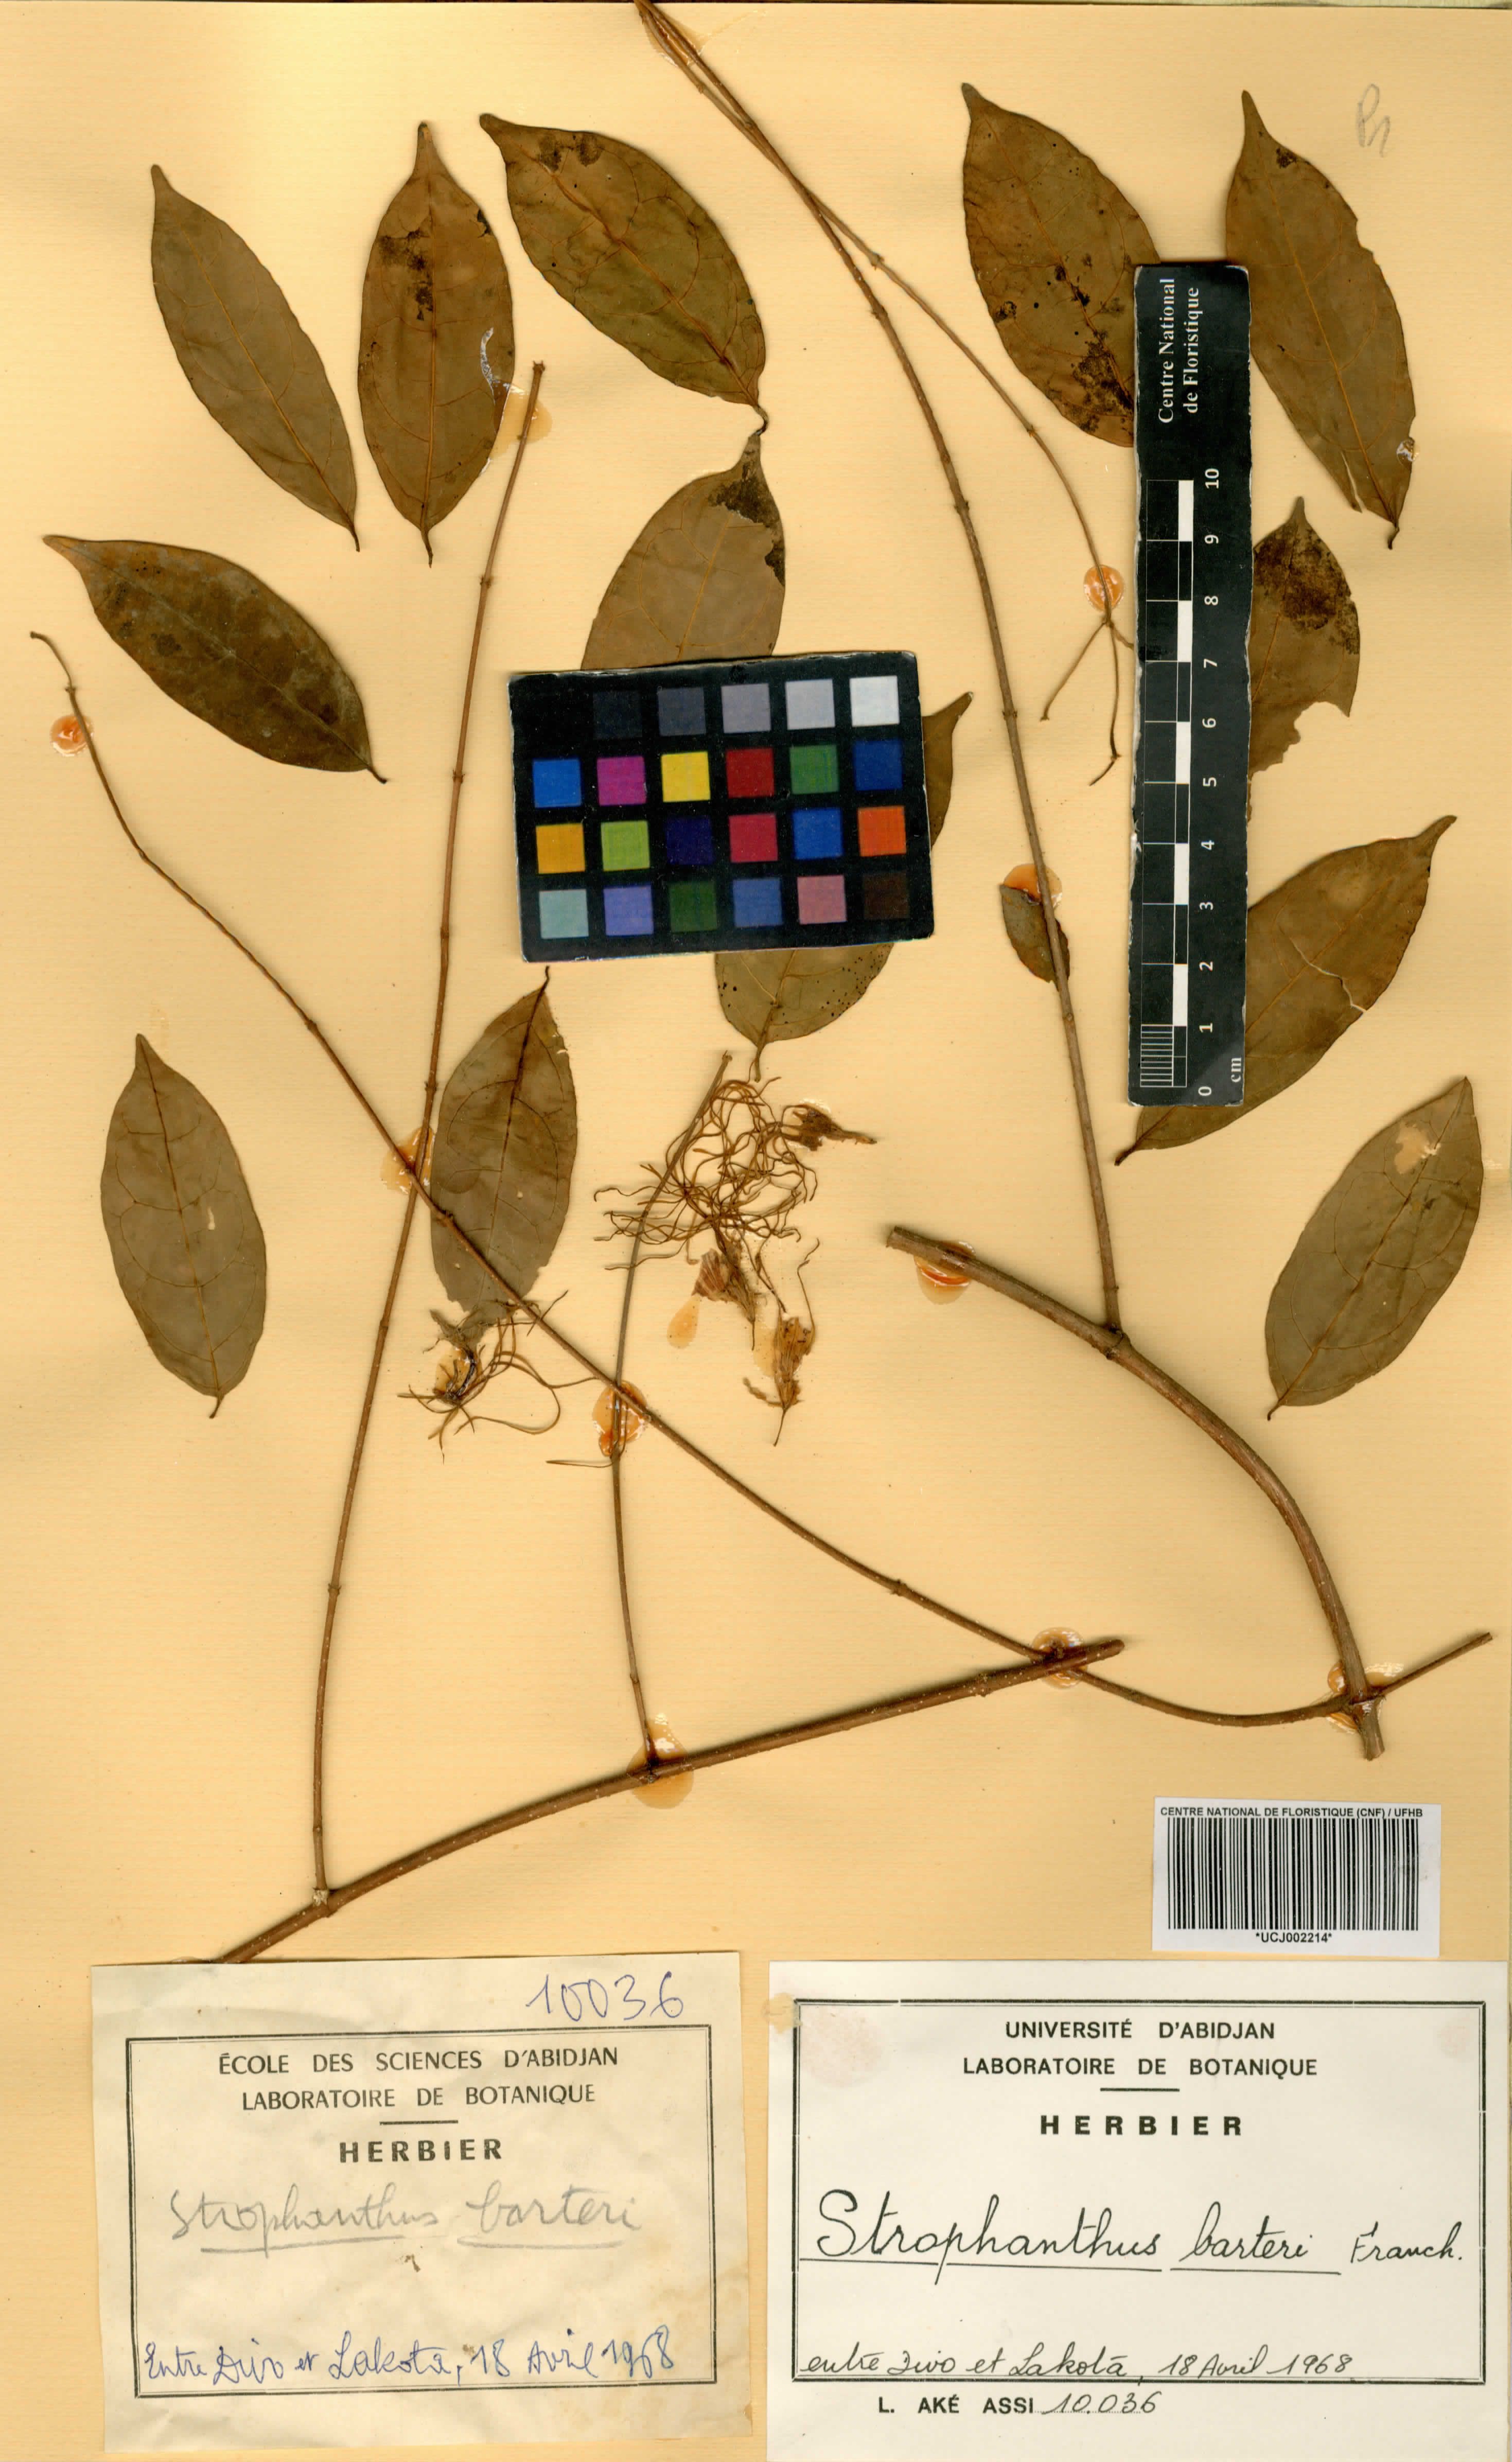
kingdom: Plantae
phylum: Tracheophyta
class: Magnoliopsida
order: Gentianales
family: Apocynaceae
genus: Strophanthus
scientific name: Strophanthus barteri
